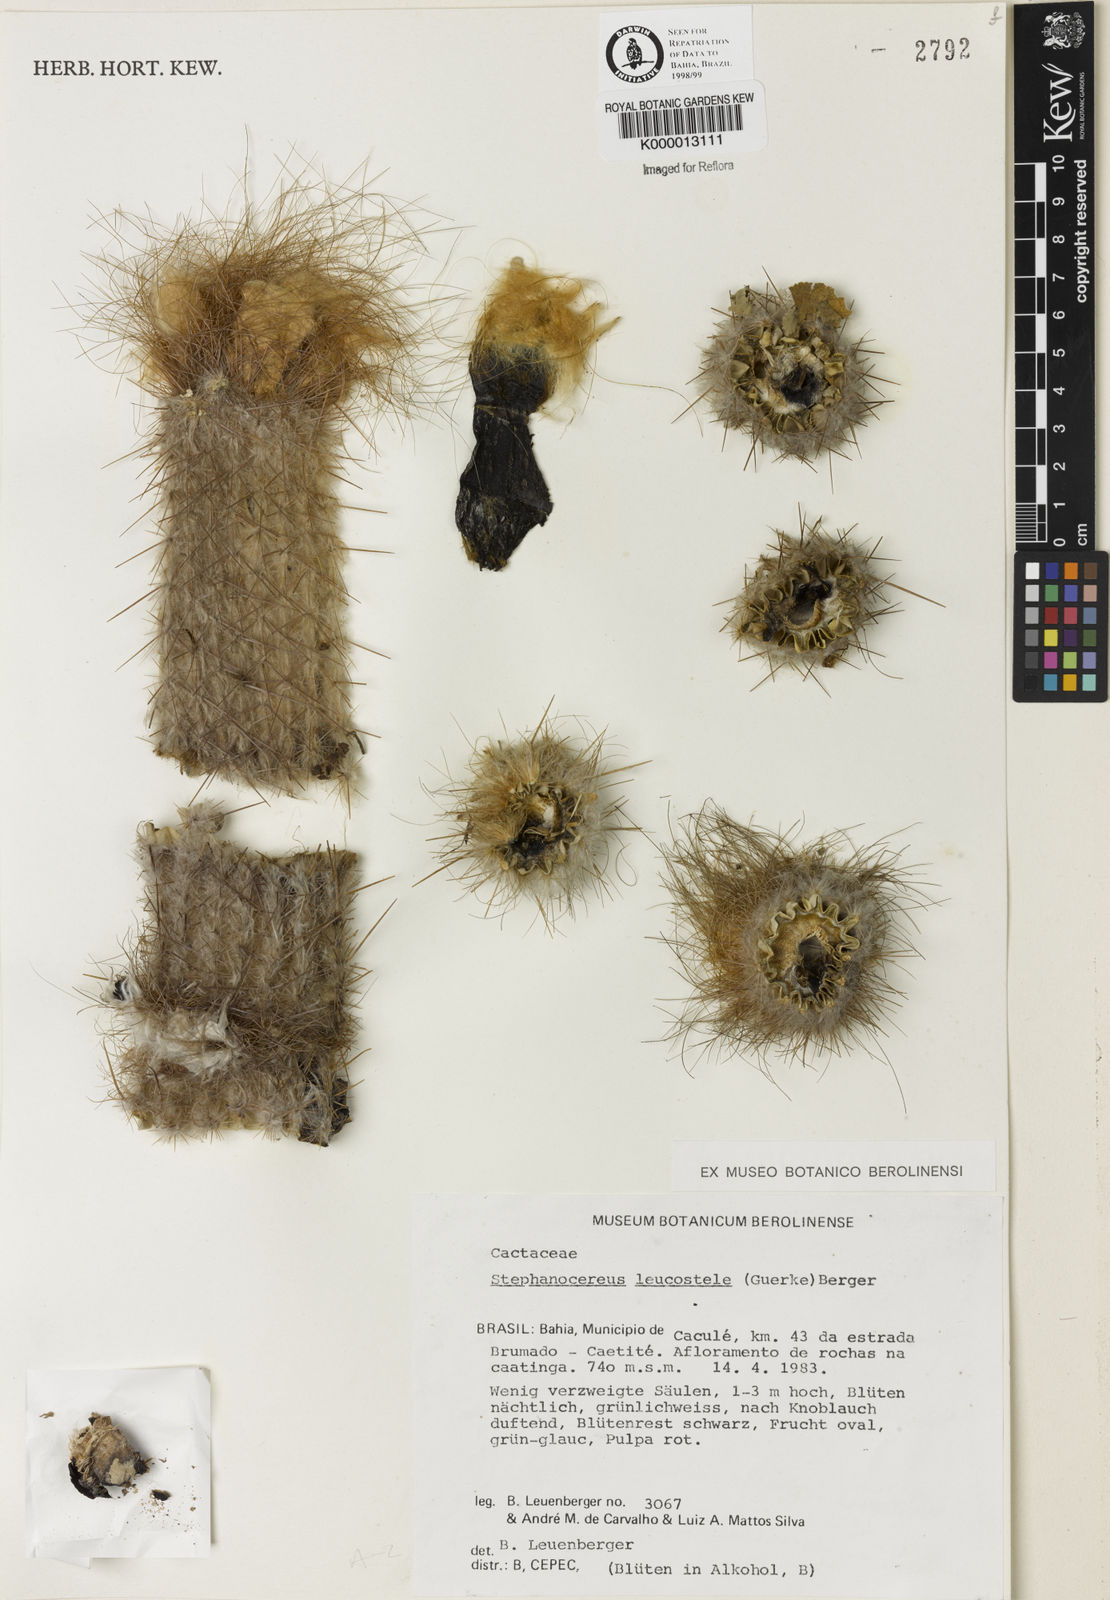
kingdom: Plantae
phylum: Tracheophyta
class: Magnoliopsida
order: Caryophyllales
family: Cactaceae
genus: Arrojadoa
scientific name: Arrojadoa leucostele
